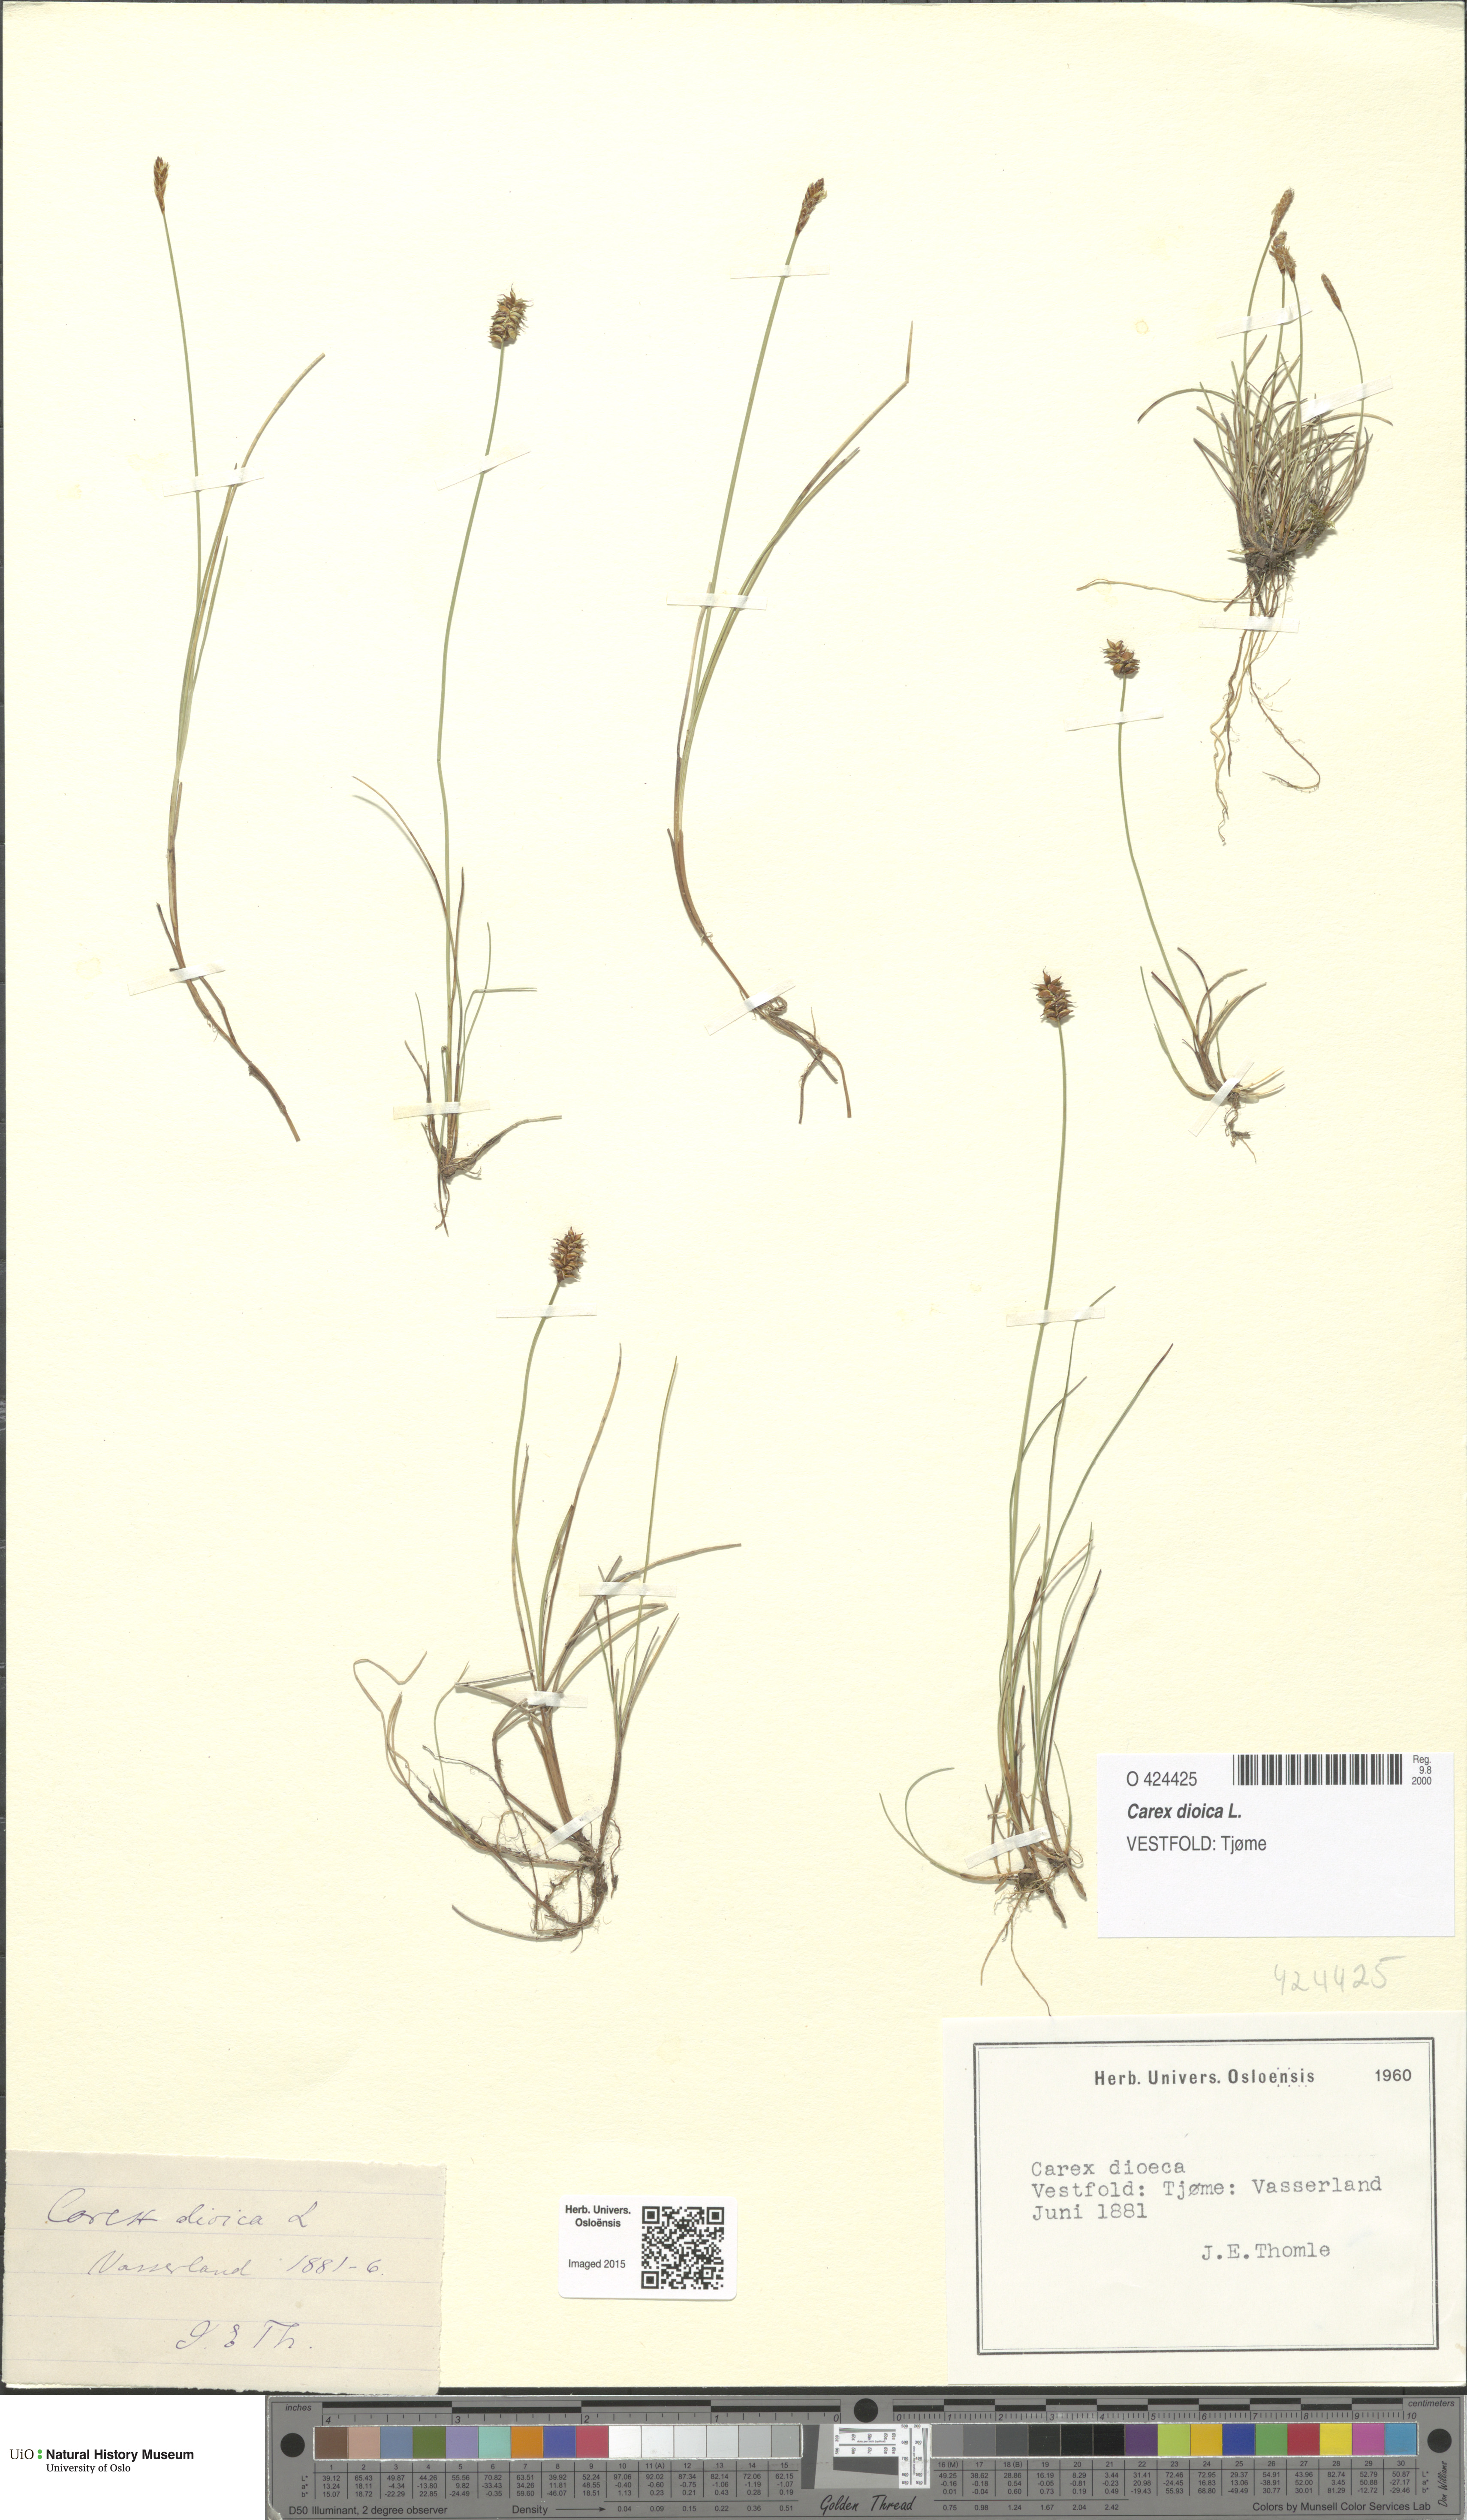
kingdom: Plantae
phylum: Tracheophyta
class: Liliopsida
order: Poales
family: Cyperaceae
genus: Carex
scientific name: Carex dioica
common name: Dioecious sedge
